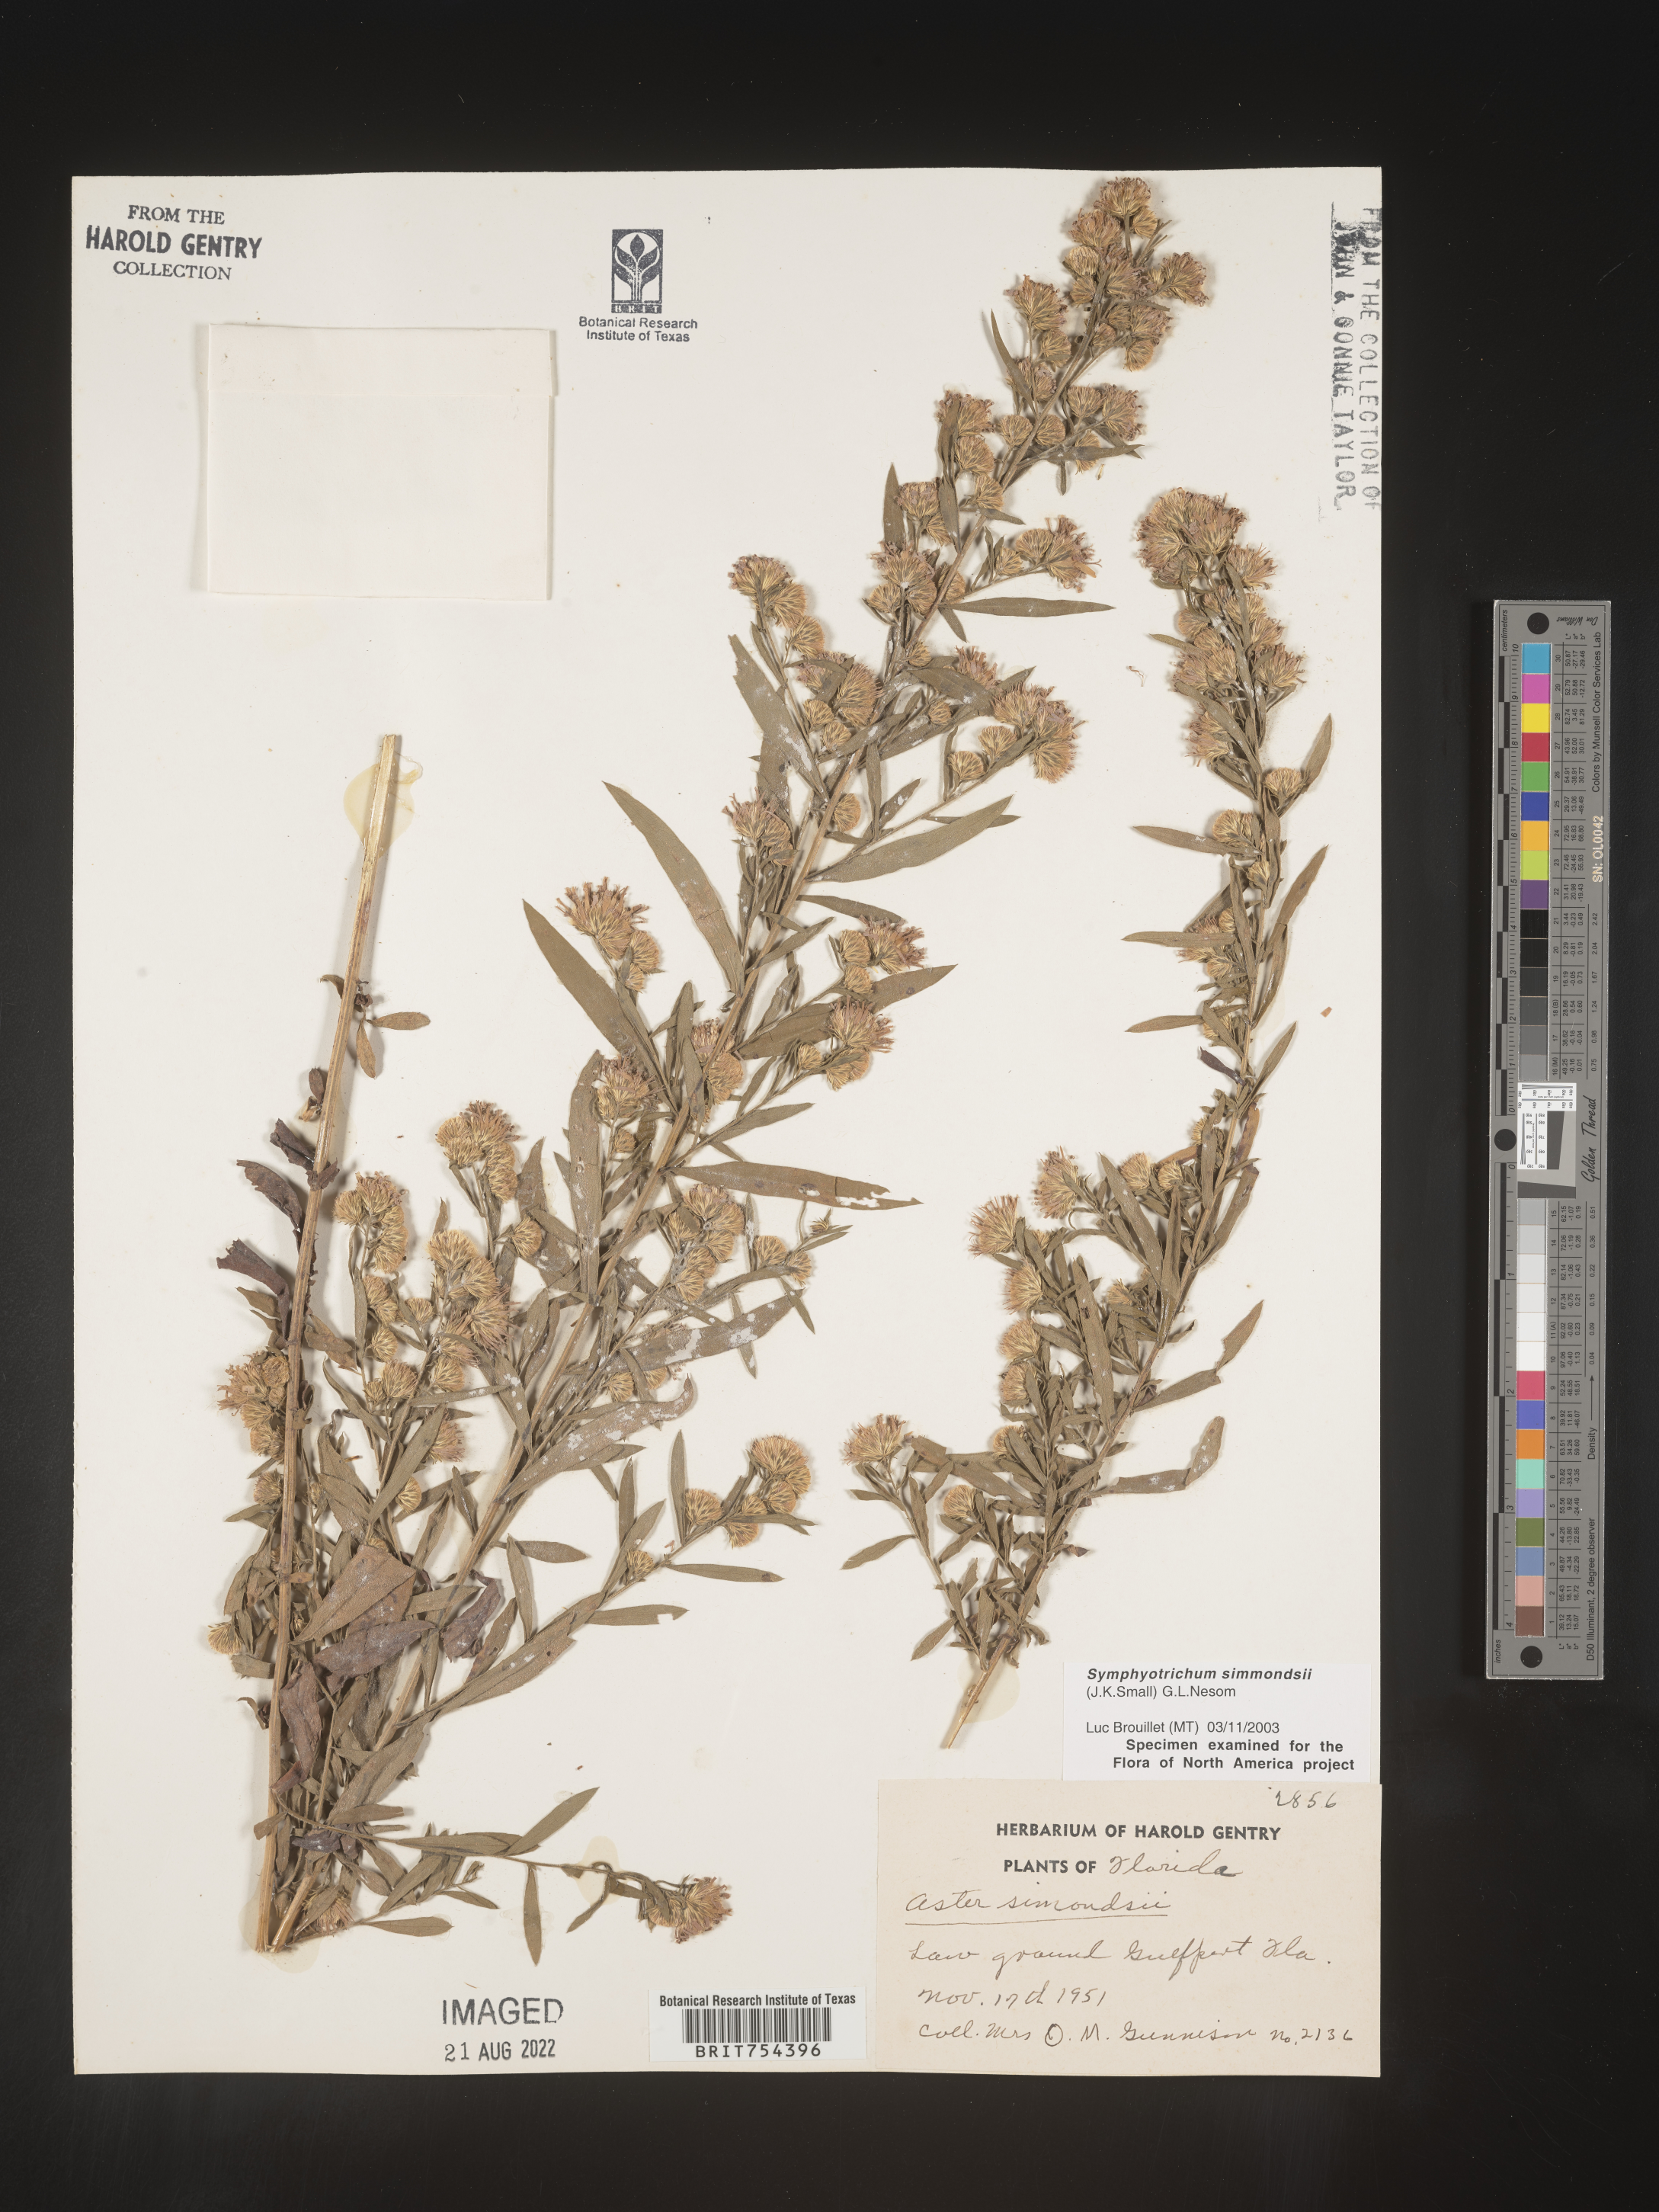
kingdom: Plantae
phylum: Tracheophyta
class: Magnoliopsida
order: Asterales
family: Asteraceae
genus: Symphyotrichum
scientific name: Symphyotrichum simmondsii
